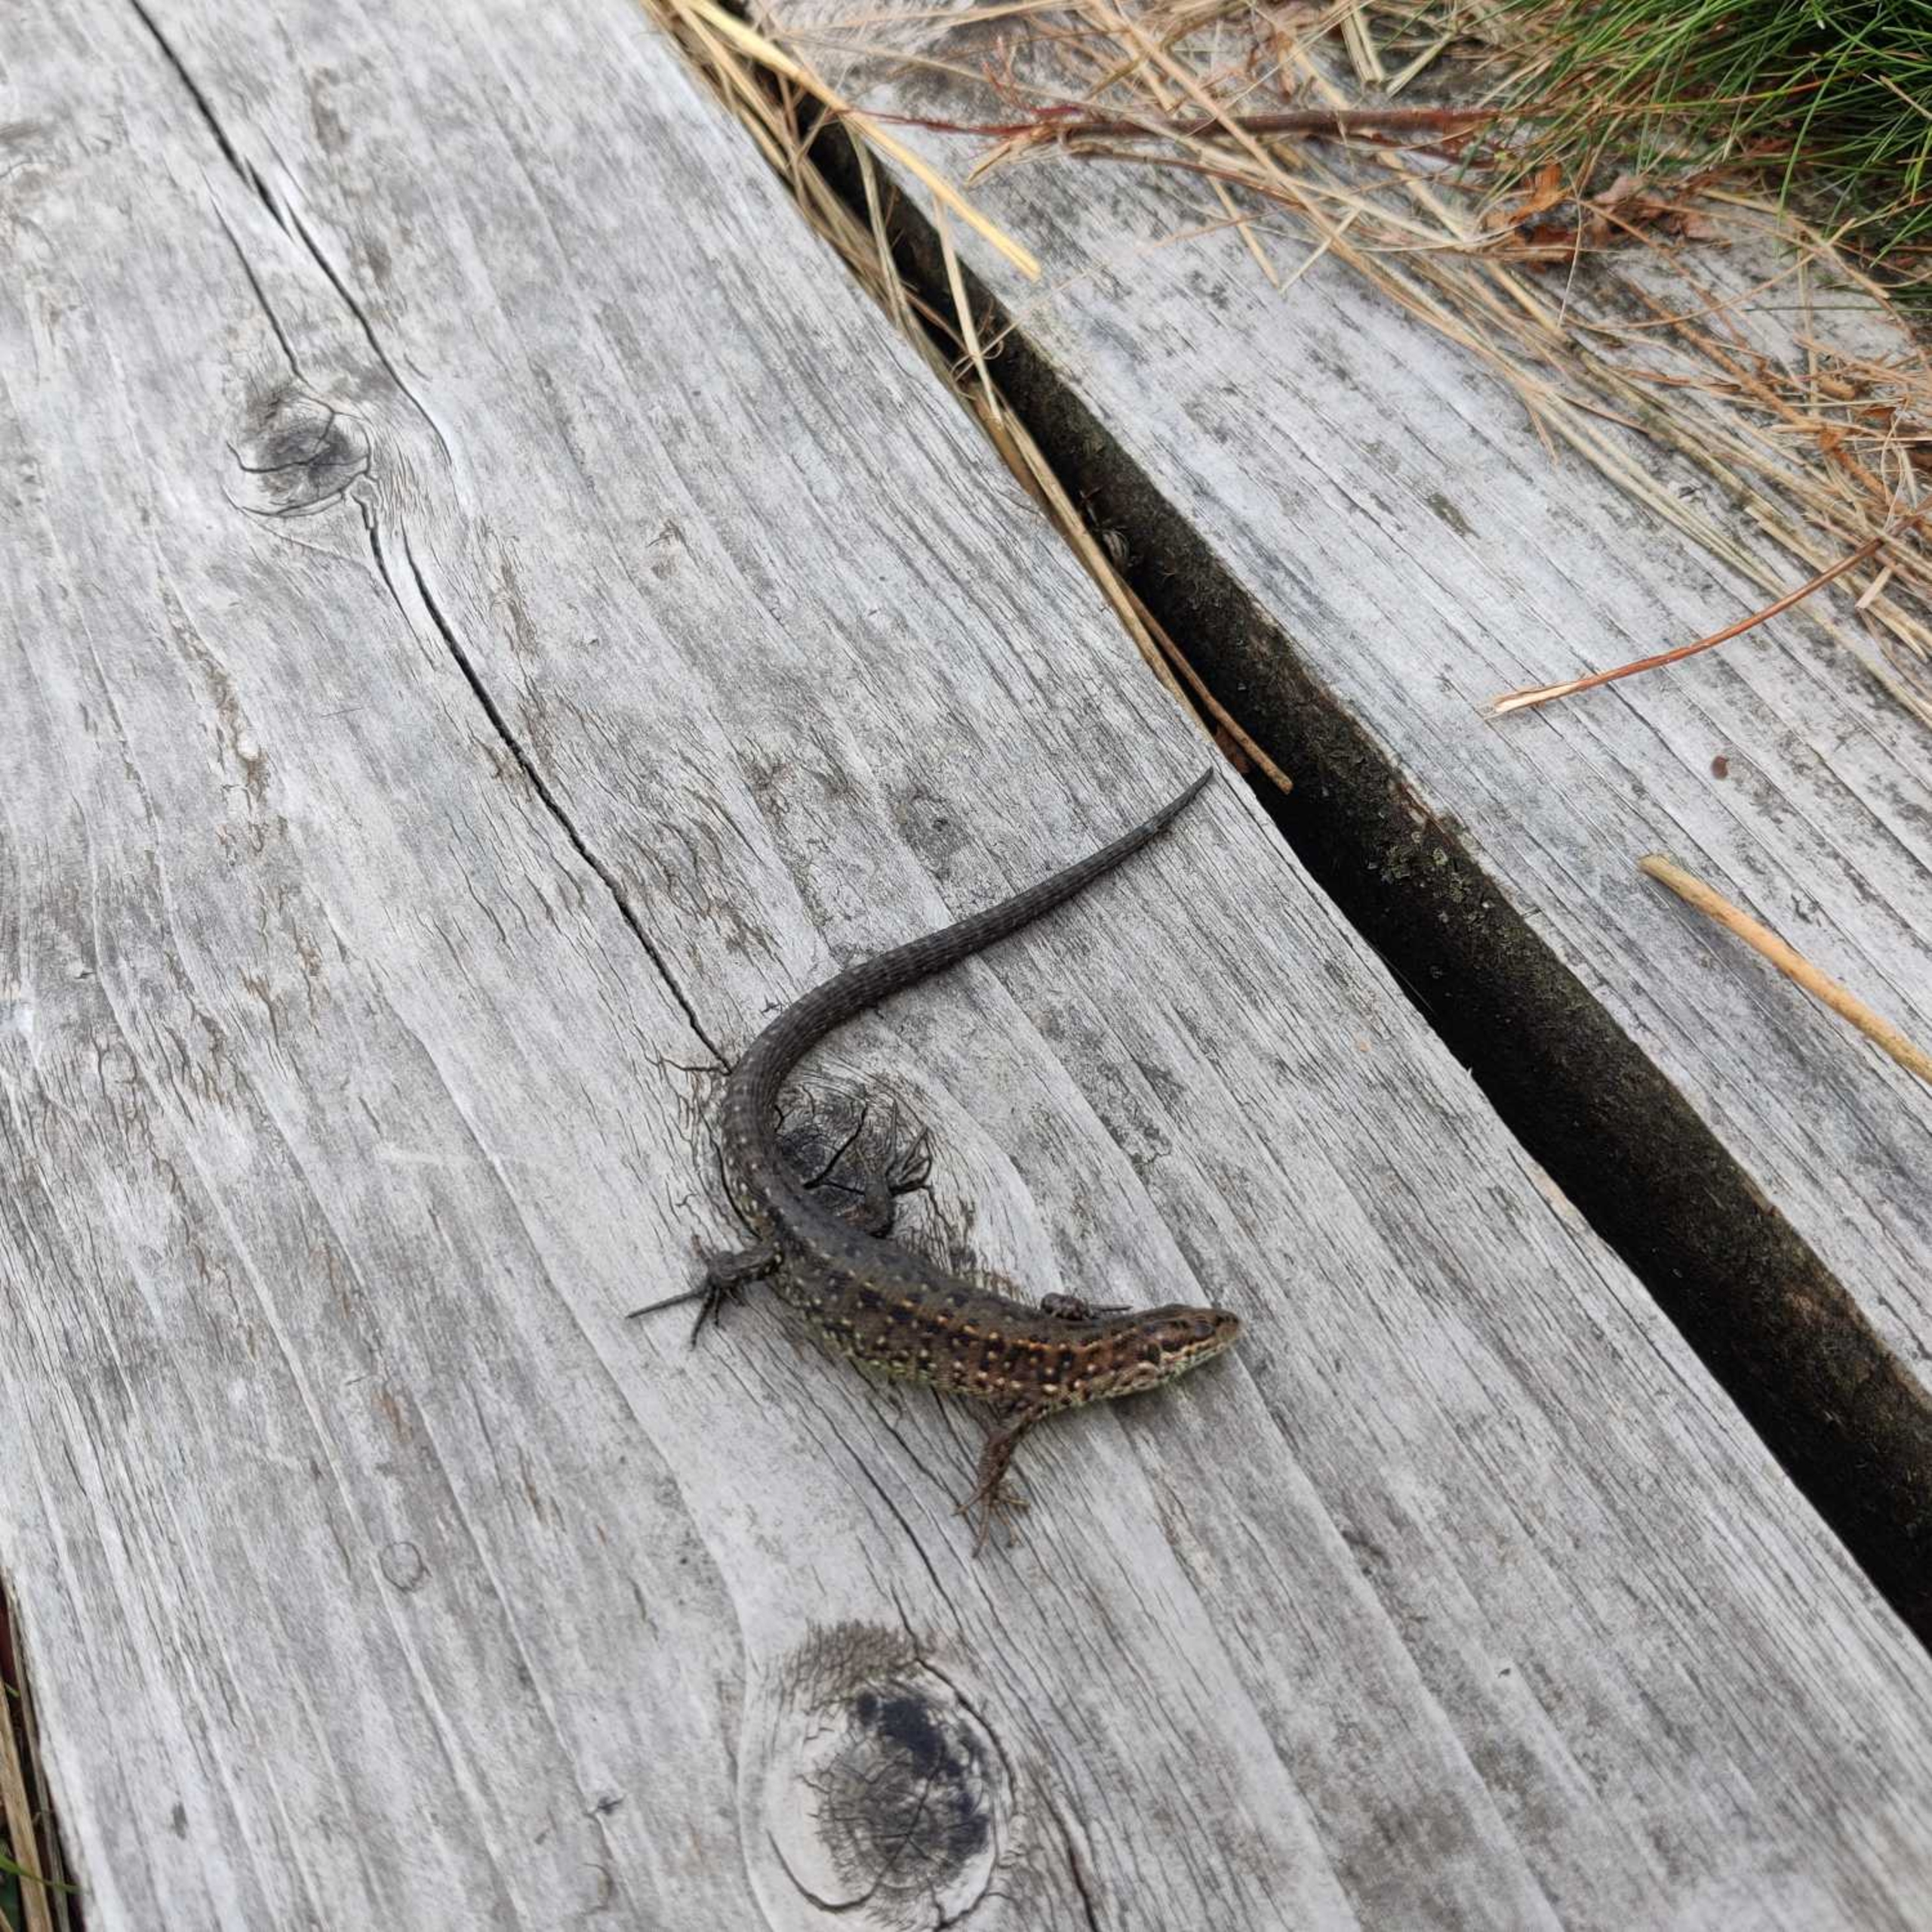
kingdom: Animalia
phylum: Chordata
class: Squamata
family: Lacertidae
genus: Zootoca
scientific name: Zootoca vivipara
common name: Skovfirben
